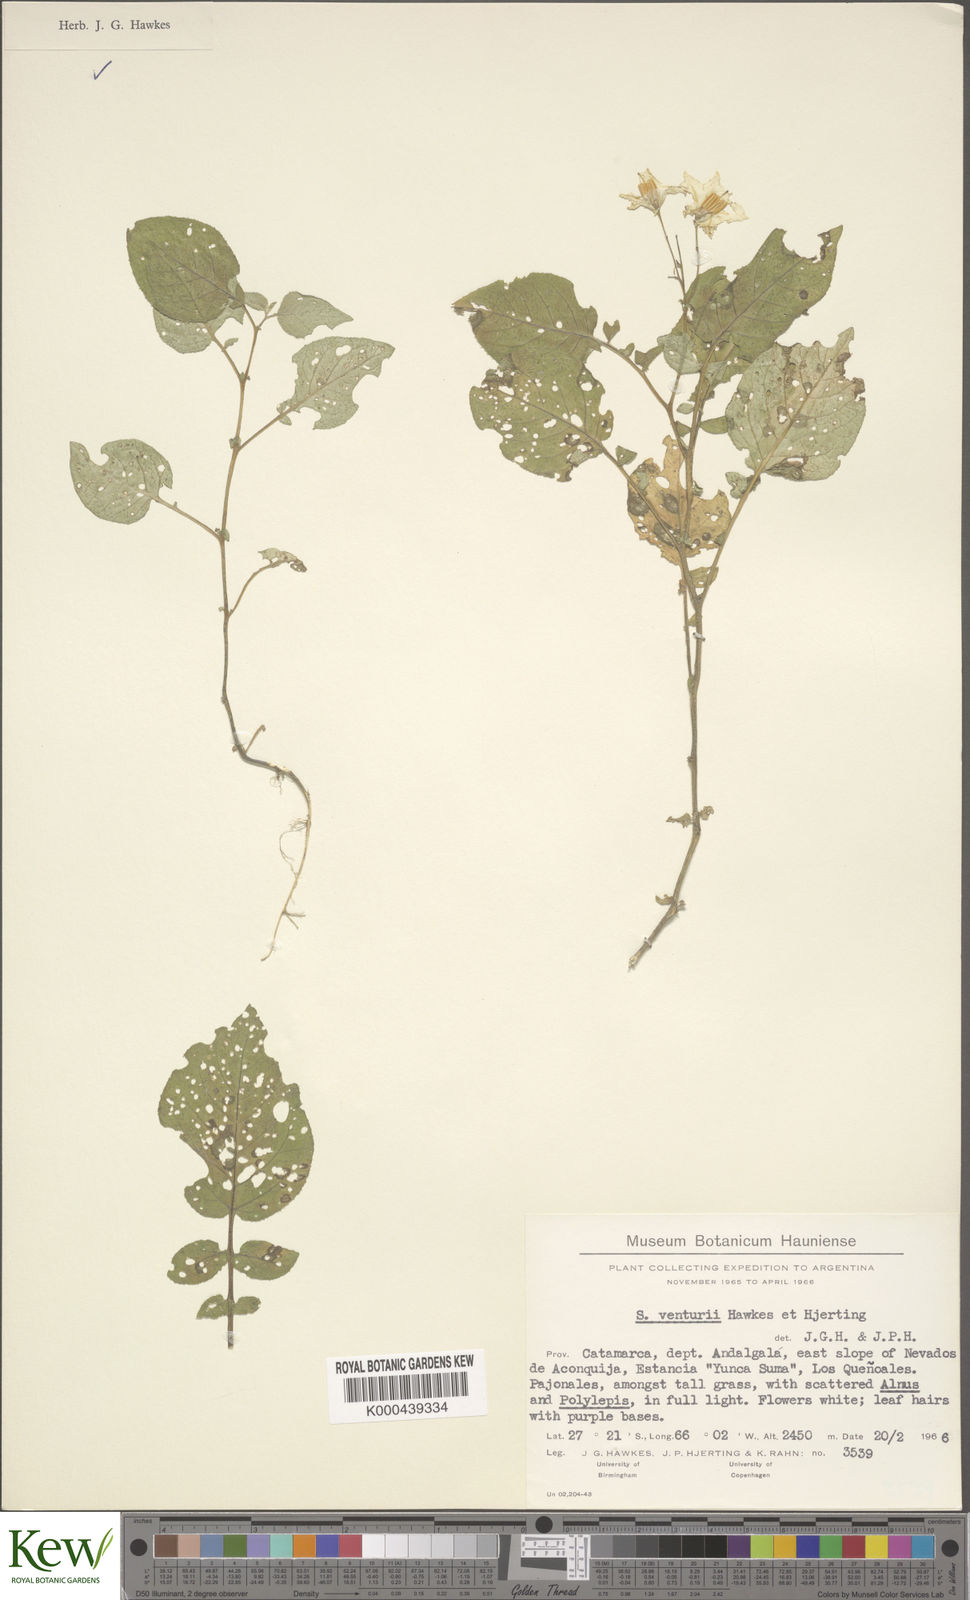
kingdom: Plantae
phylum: Tracheophyta
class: Magnoliopsida
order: Solanales
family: Solanaceae
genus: Solanum
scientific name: Solanum venturii
